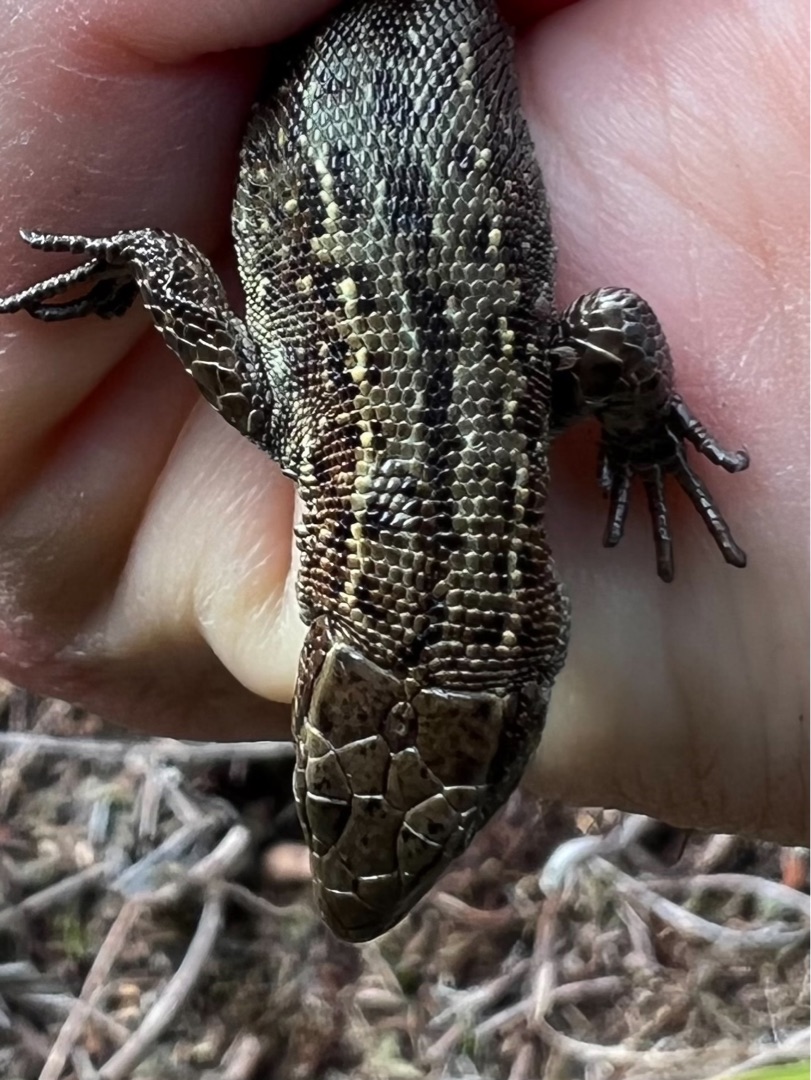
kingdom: Animalia
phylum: Chordata
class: Squamata
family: Lacertidae
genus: Zootoca
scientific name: Zootoca vivipara
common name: Skovfirben
